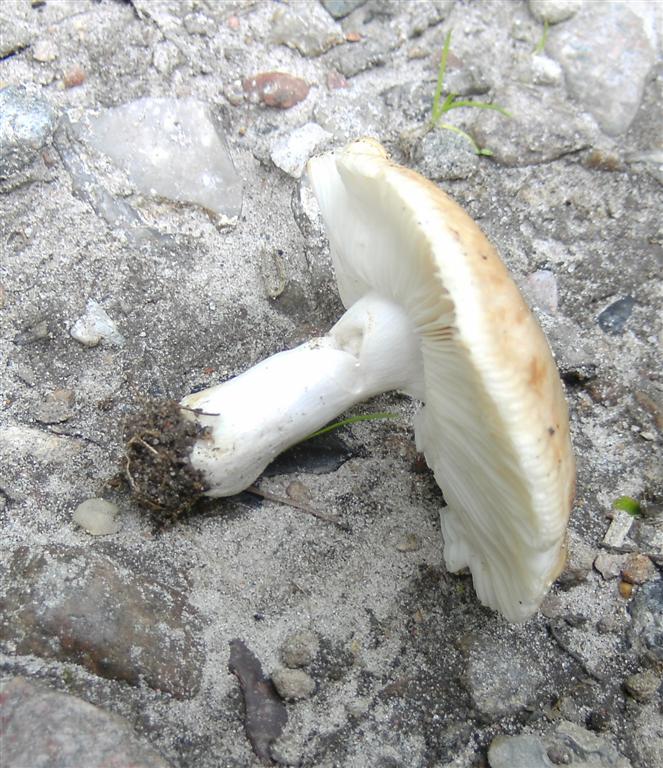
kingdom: Fungi
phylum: Basidiomycota
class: Agaricomycetes
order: Russulales
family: Russulaceae
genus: Russula
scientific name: Russula
